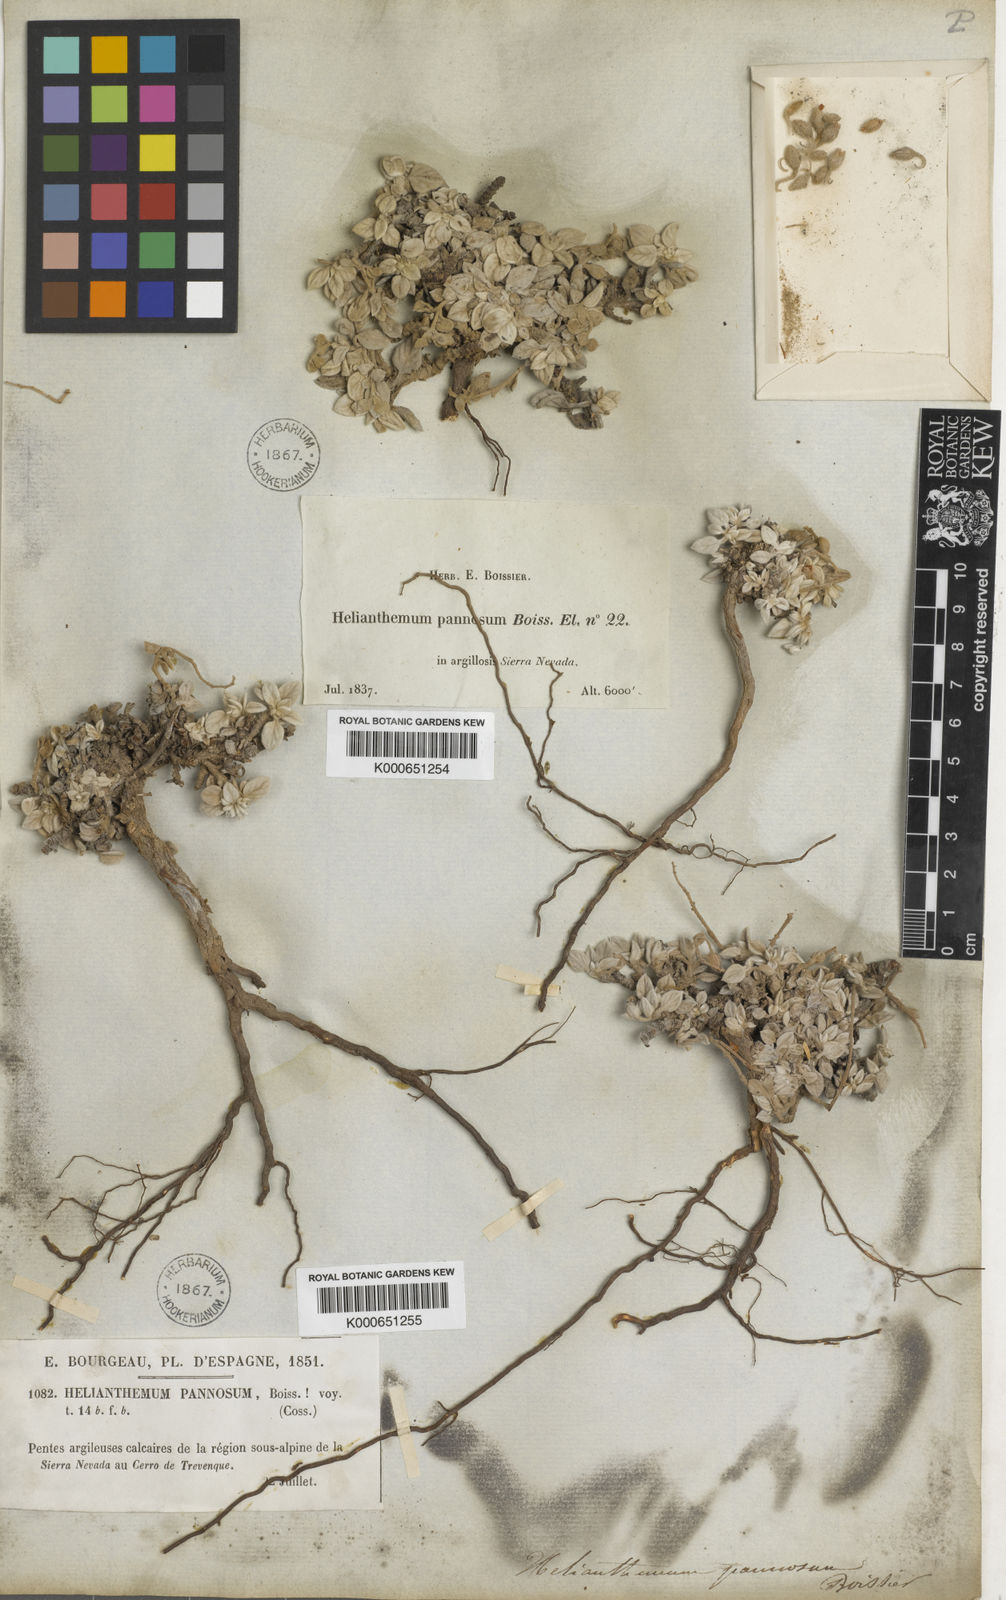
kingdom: Plantae
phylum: Tracheophyta
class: Magnoliopsida
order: Malvales
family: Cistaceae
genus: Helianthemum
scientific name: Helianthemum pannosum
